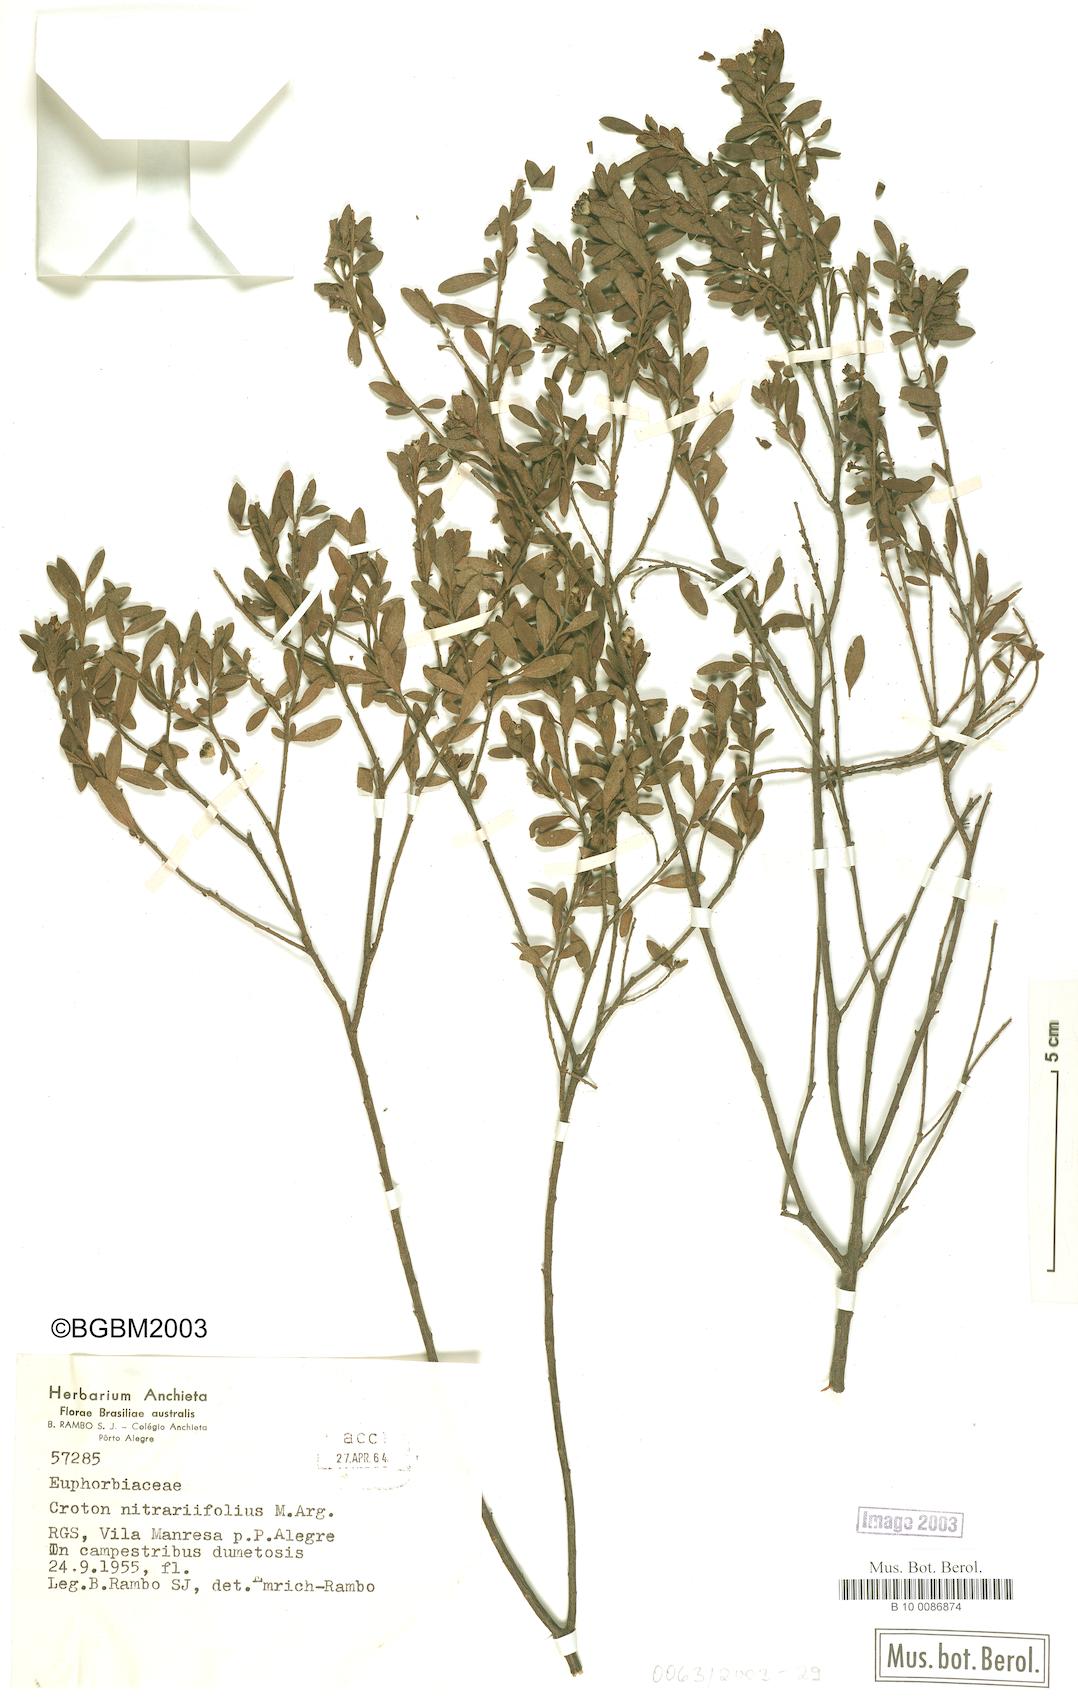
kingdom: Plantae
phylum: Tracheophyta
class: Magnoliopsida
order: Malpighiales
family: Euphorbiaceae
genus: Croton
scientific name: Croton nitrariifolius
